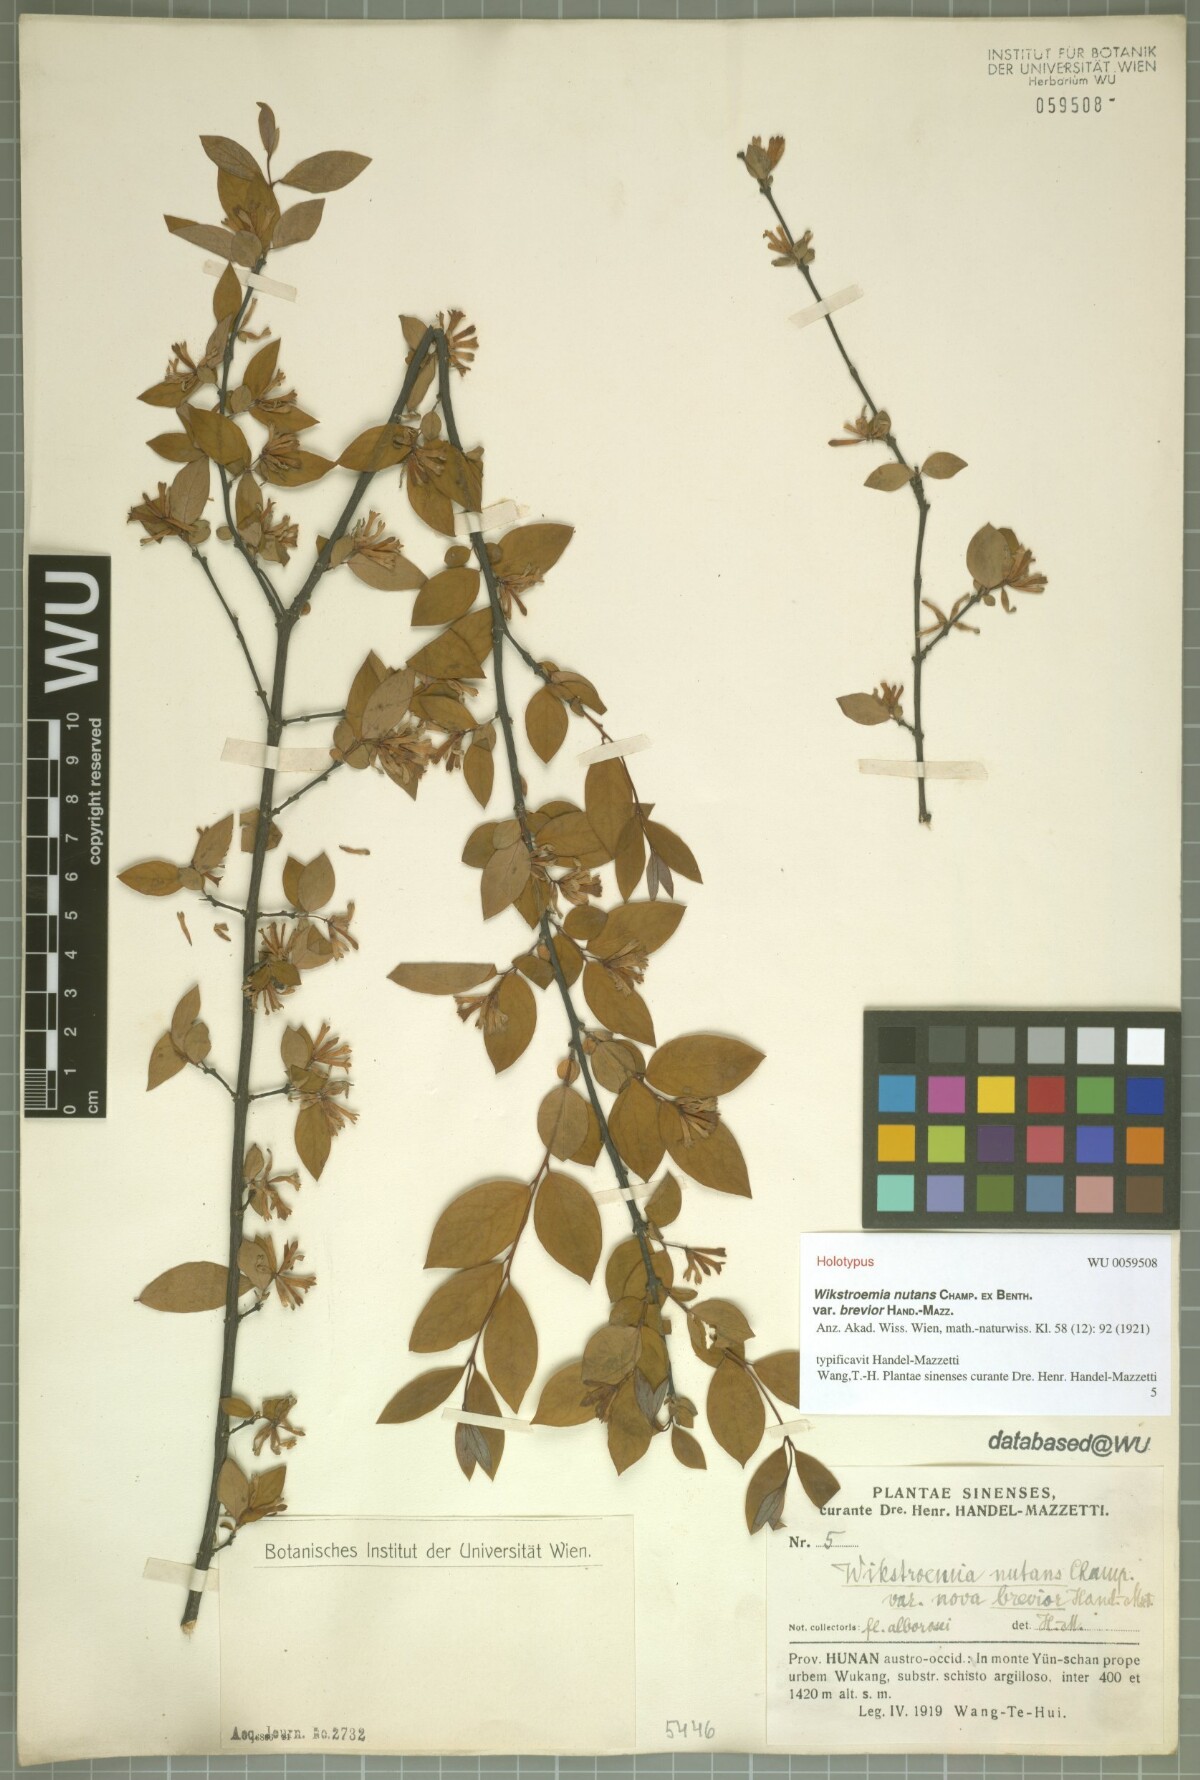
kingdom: Plantae
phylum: Tracheophyta
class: Magnoliopsida
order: Malvales
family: Thymelaeaceae
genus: Wikstroemia
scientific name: Wikstroemia nutans
